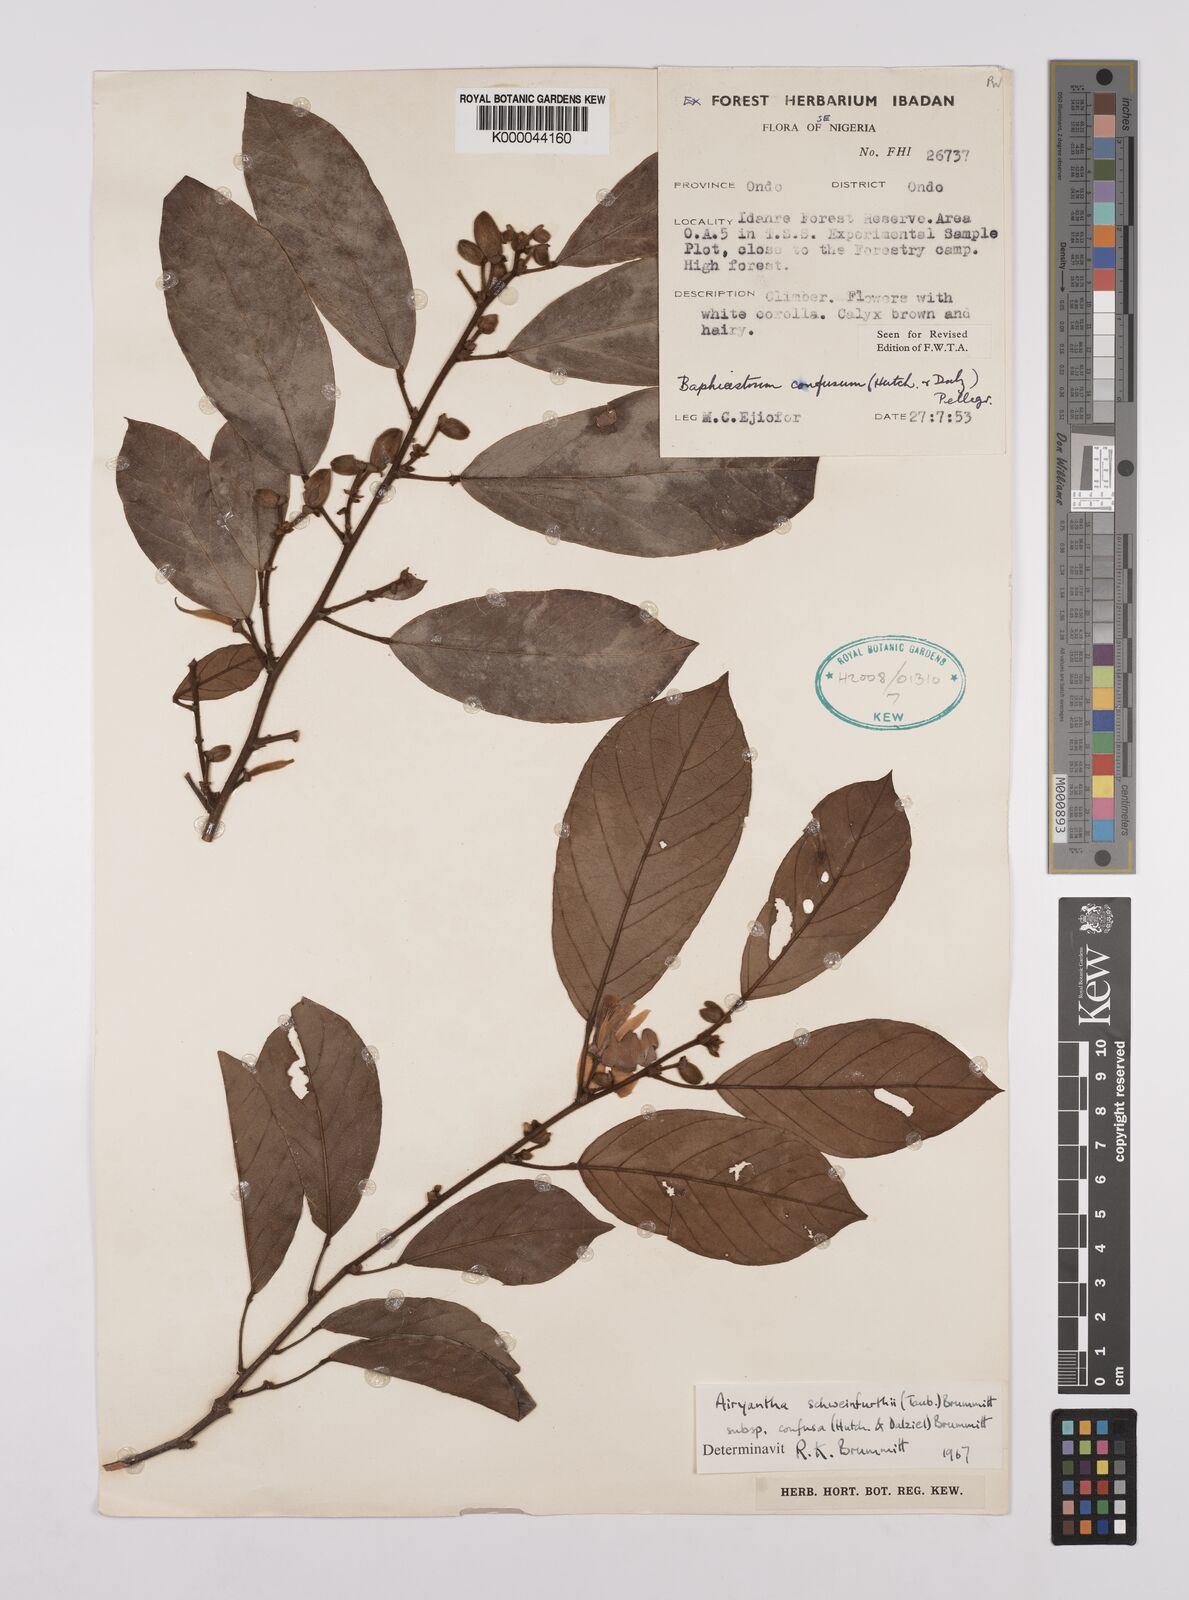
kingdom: Plantae
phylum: Tracheophyta
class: Magnoliopsida
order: Fabales
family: Fabaceae
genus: Airyantha
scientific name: Airyantha schweinfurthii
